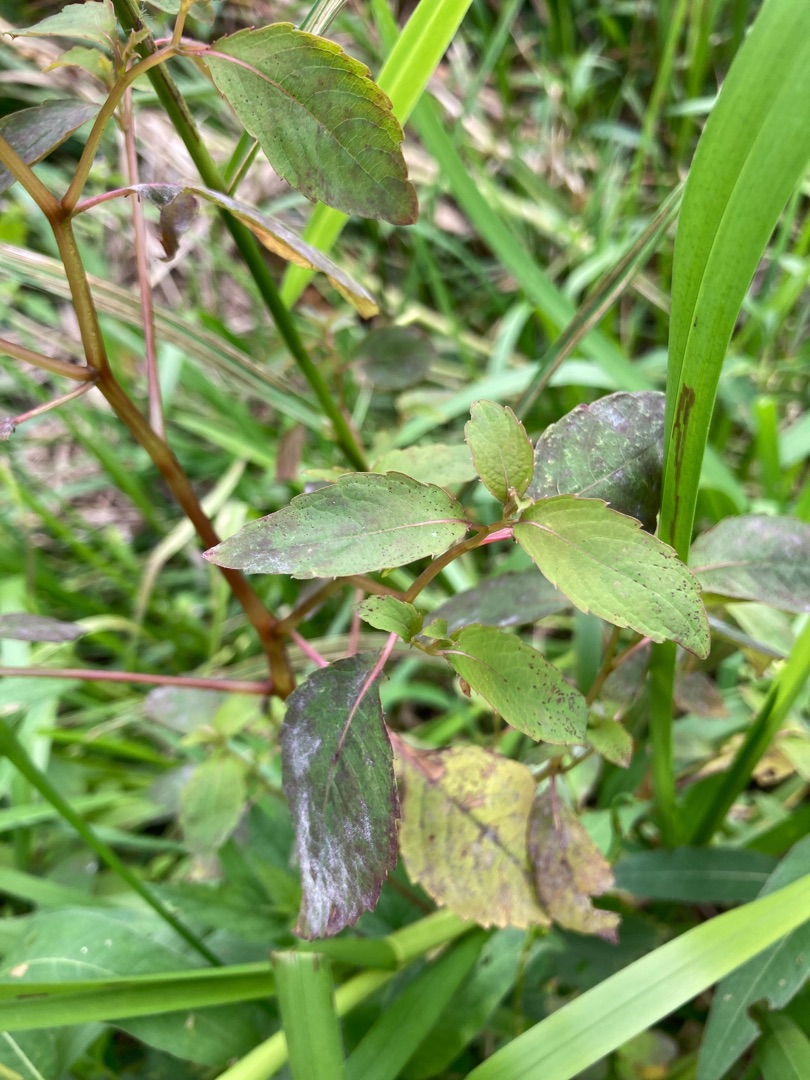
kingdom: Plantae
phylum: Tracheophyta
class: Magnoliopsida
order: Ericales
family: Balsaminaceae
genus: Impatiens
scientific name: Impatiens capensis
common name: Orange-balsamin
